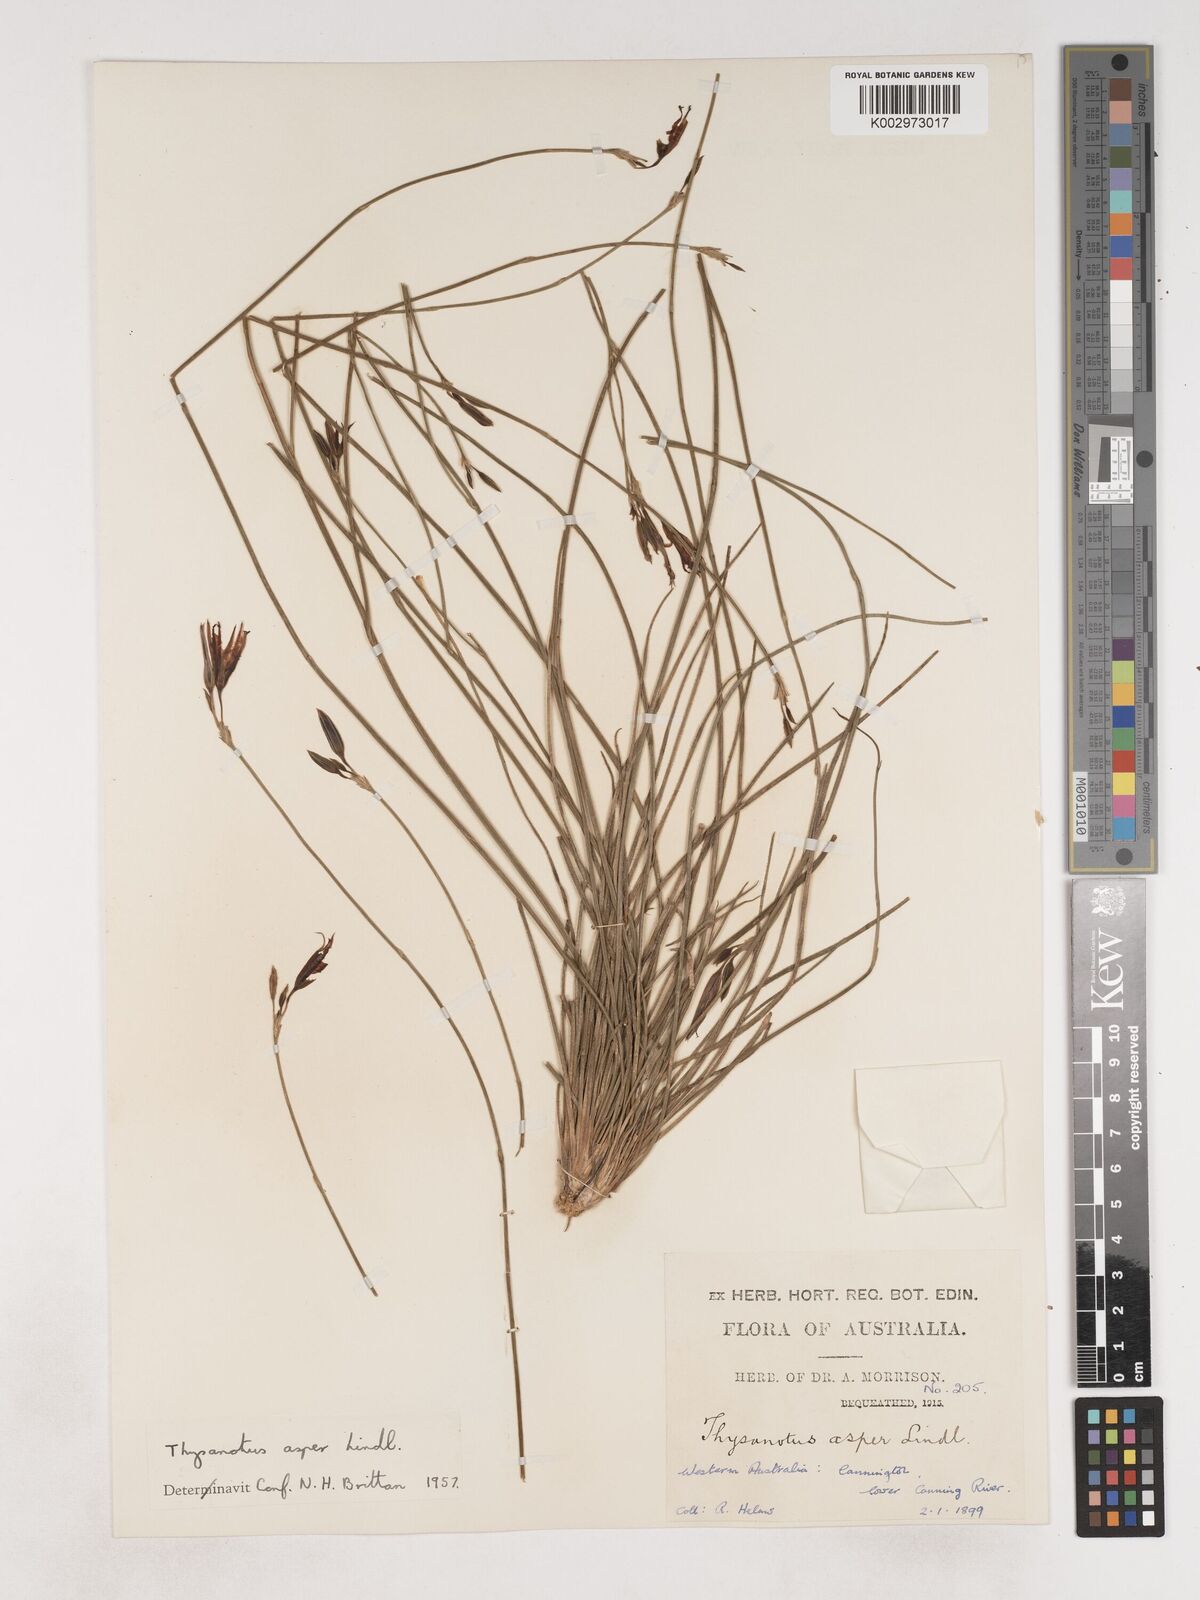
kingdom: Plantae
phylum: Tracheophyta
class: Liliopsida
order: Asparagales
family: Asparagaceae
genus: Thysanotus
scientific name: Thysanotus asper
